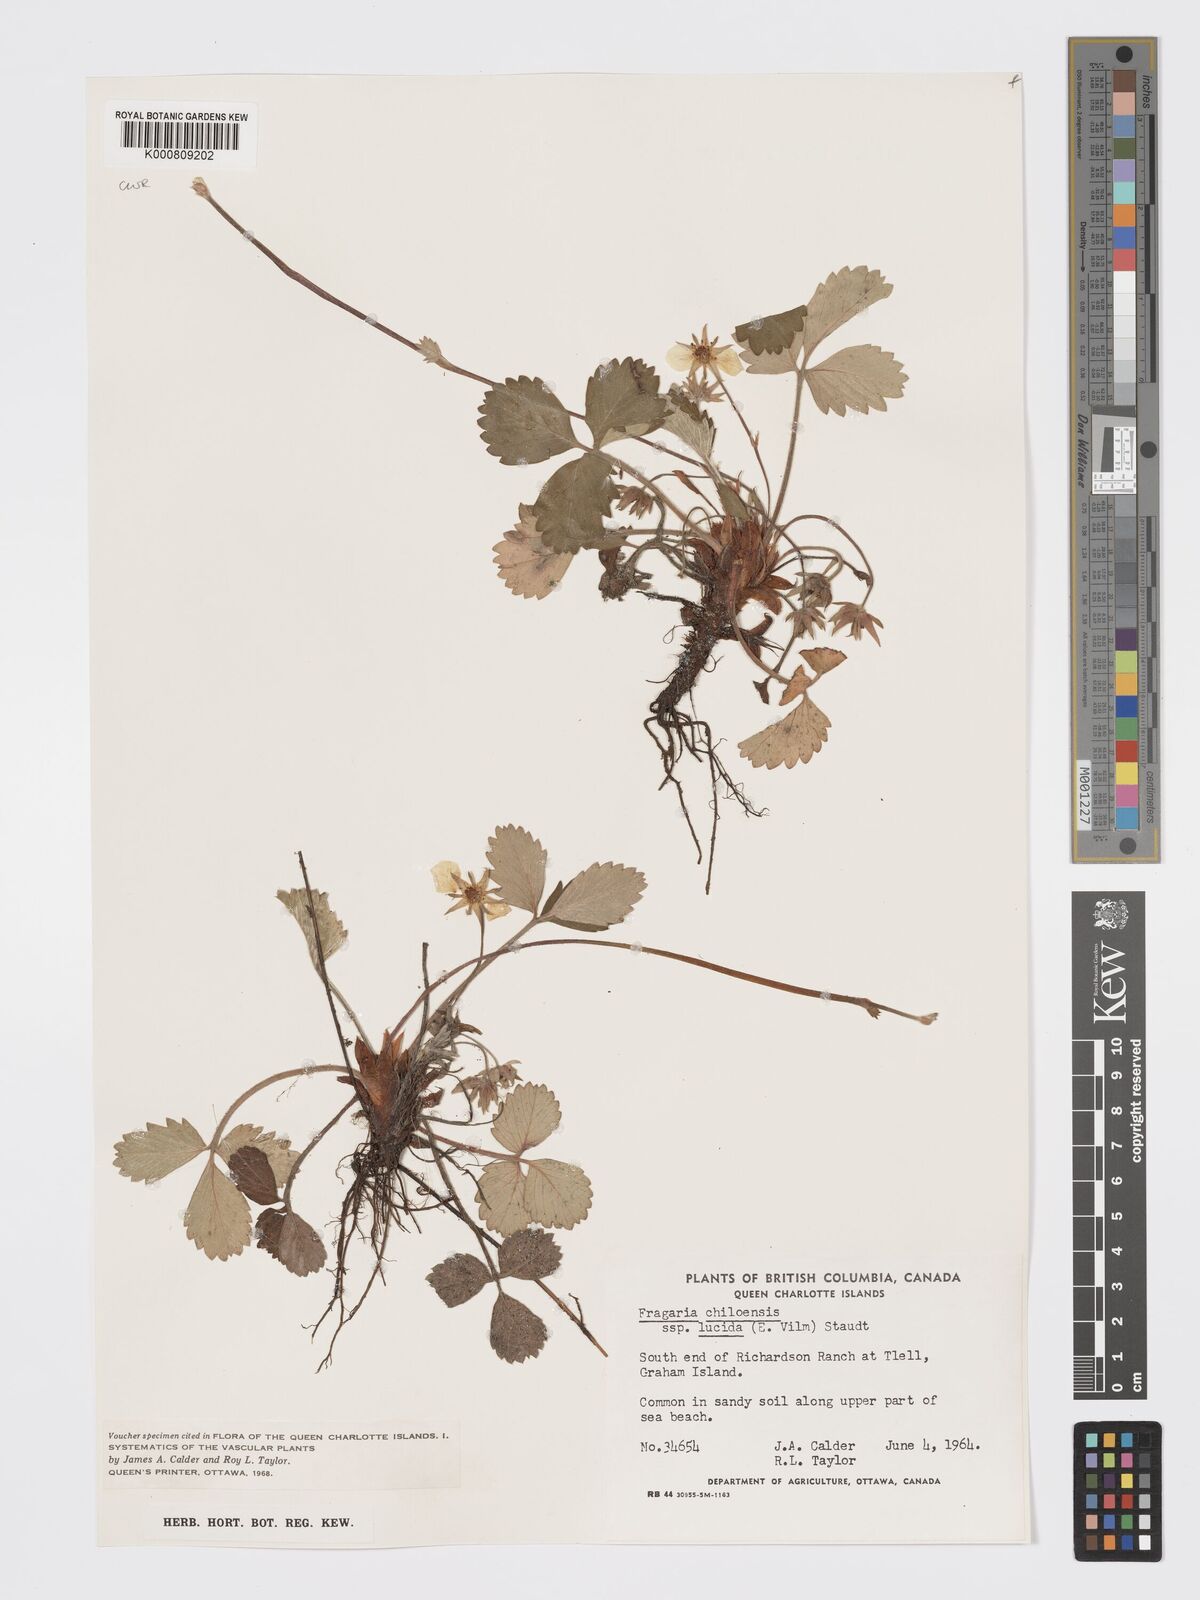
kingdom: Plantae
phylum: Tracheophyta
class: Magnoliopsida
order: Rosales
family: Rosaceae
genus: Fragaria
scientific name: Fragaria
